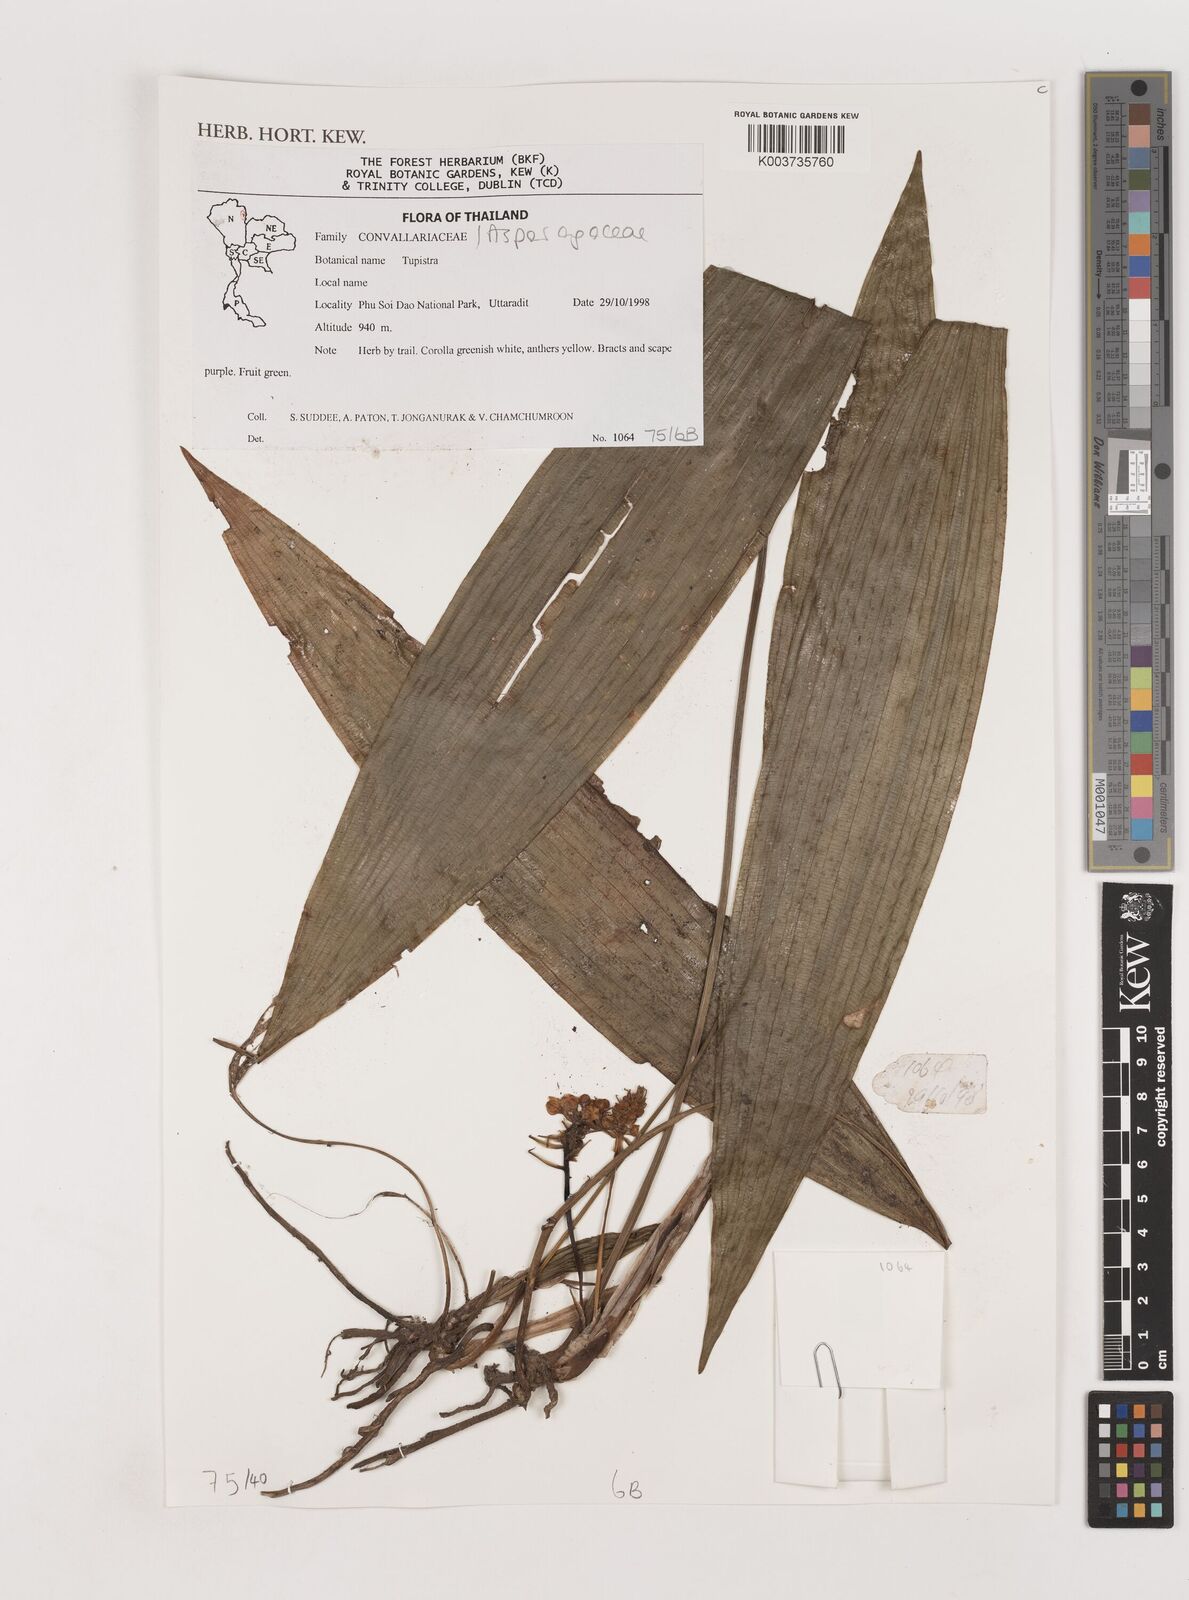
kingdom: Plantae
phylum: Tracheophyta
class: Liliopsida
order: Asparagales
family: Asparagaceae
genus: Tupistra
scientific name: Tupistra
